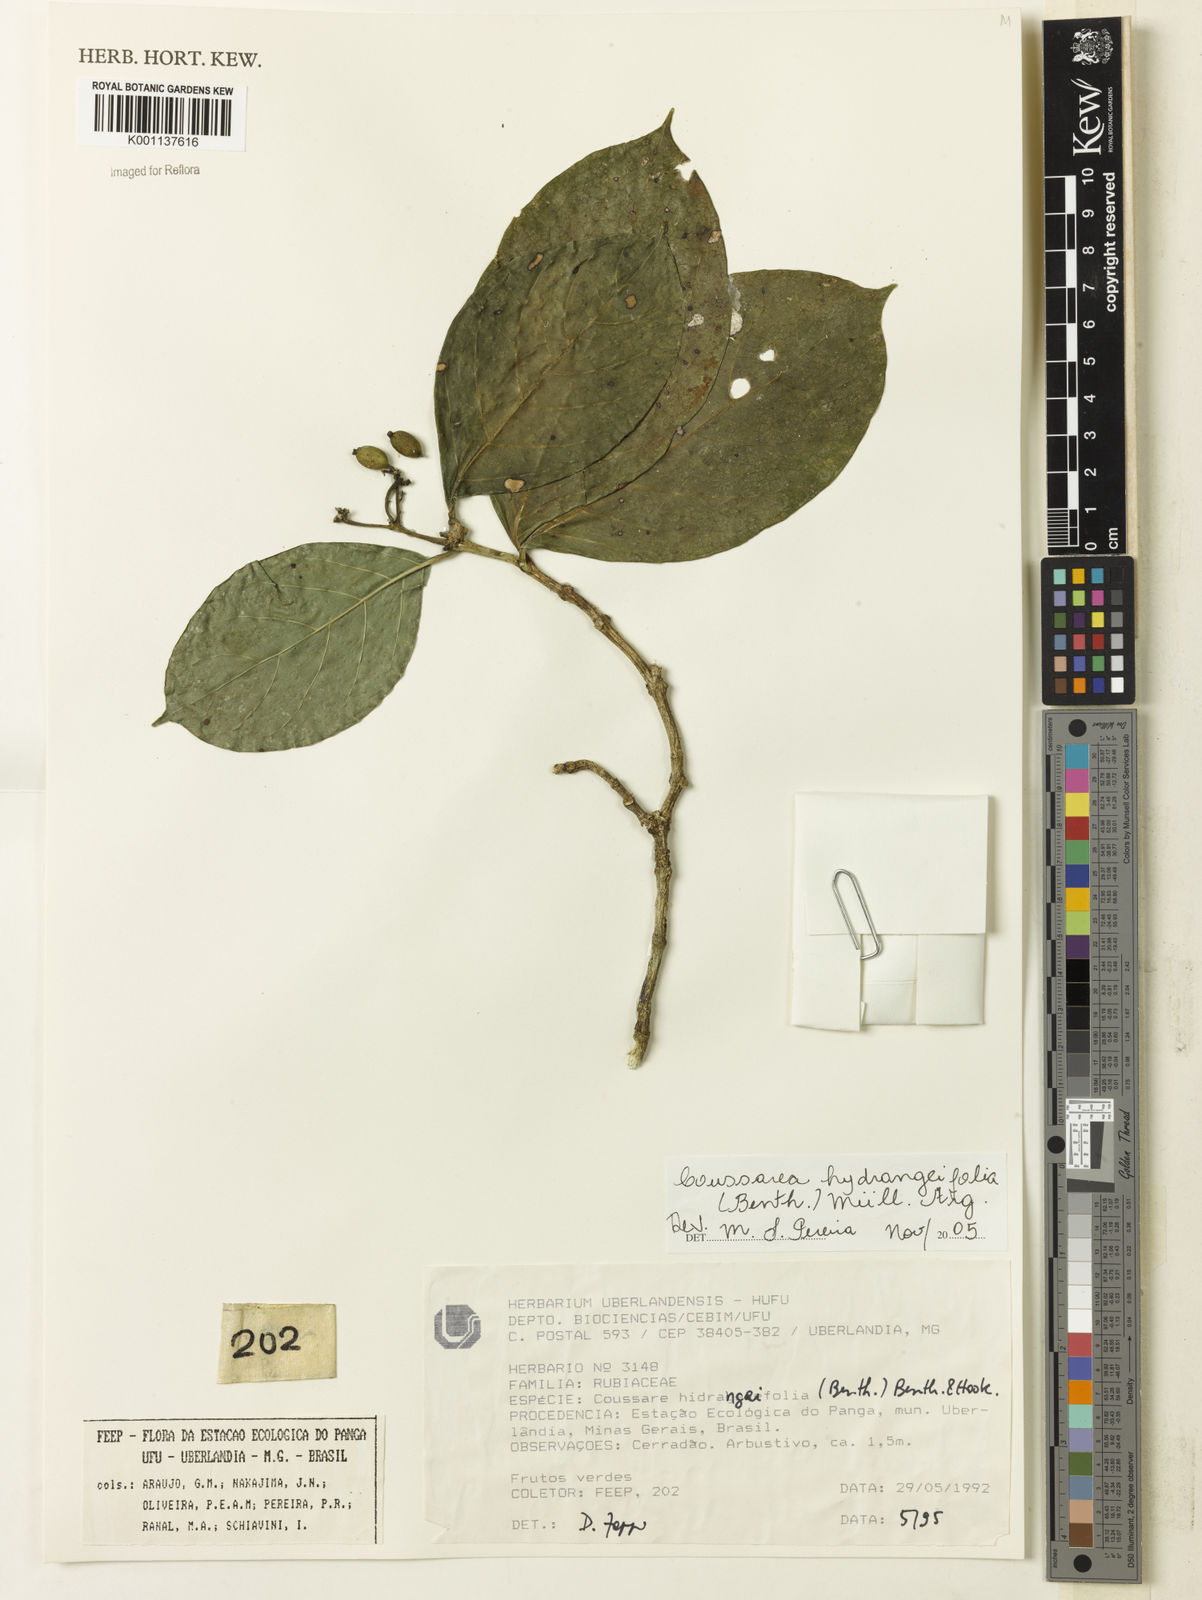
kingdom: Plantae
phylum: Tracheophyta
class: Magnoliopsida
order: Gentianales
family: Rubiaceae
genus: Coussarea
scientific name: Coussarea
